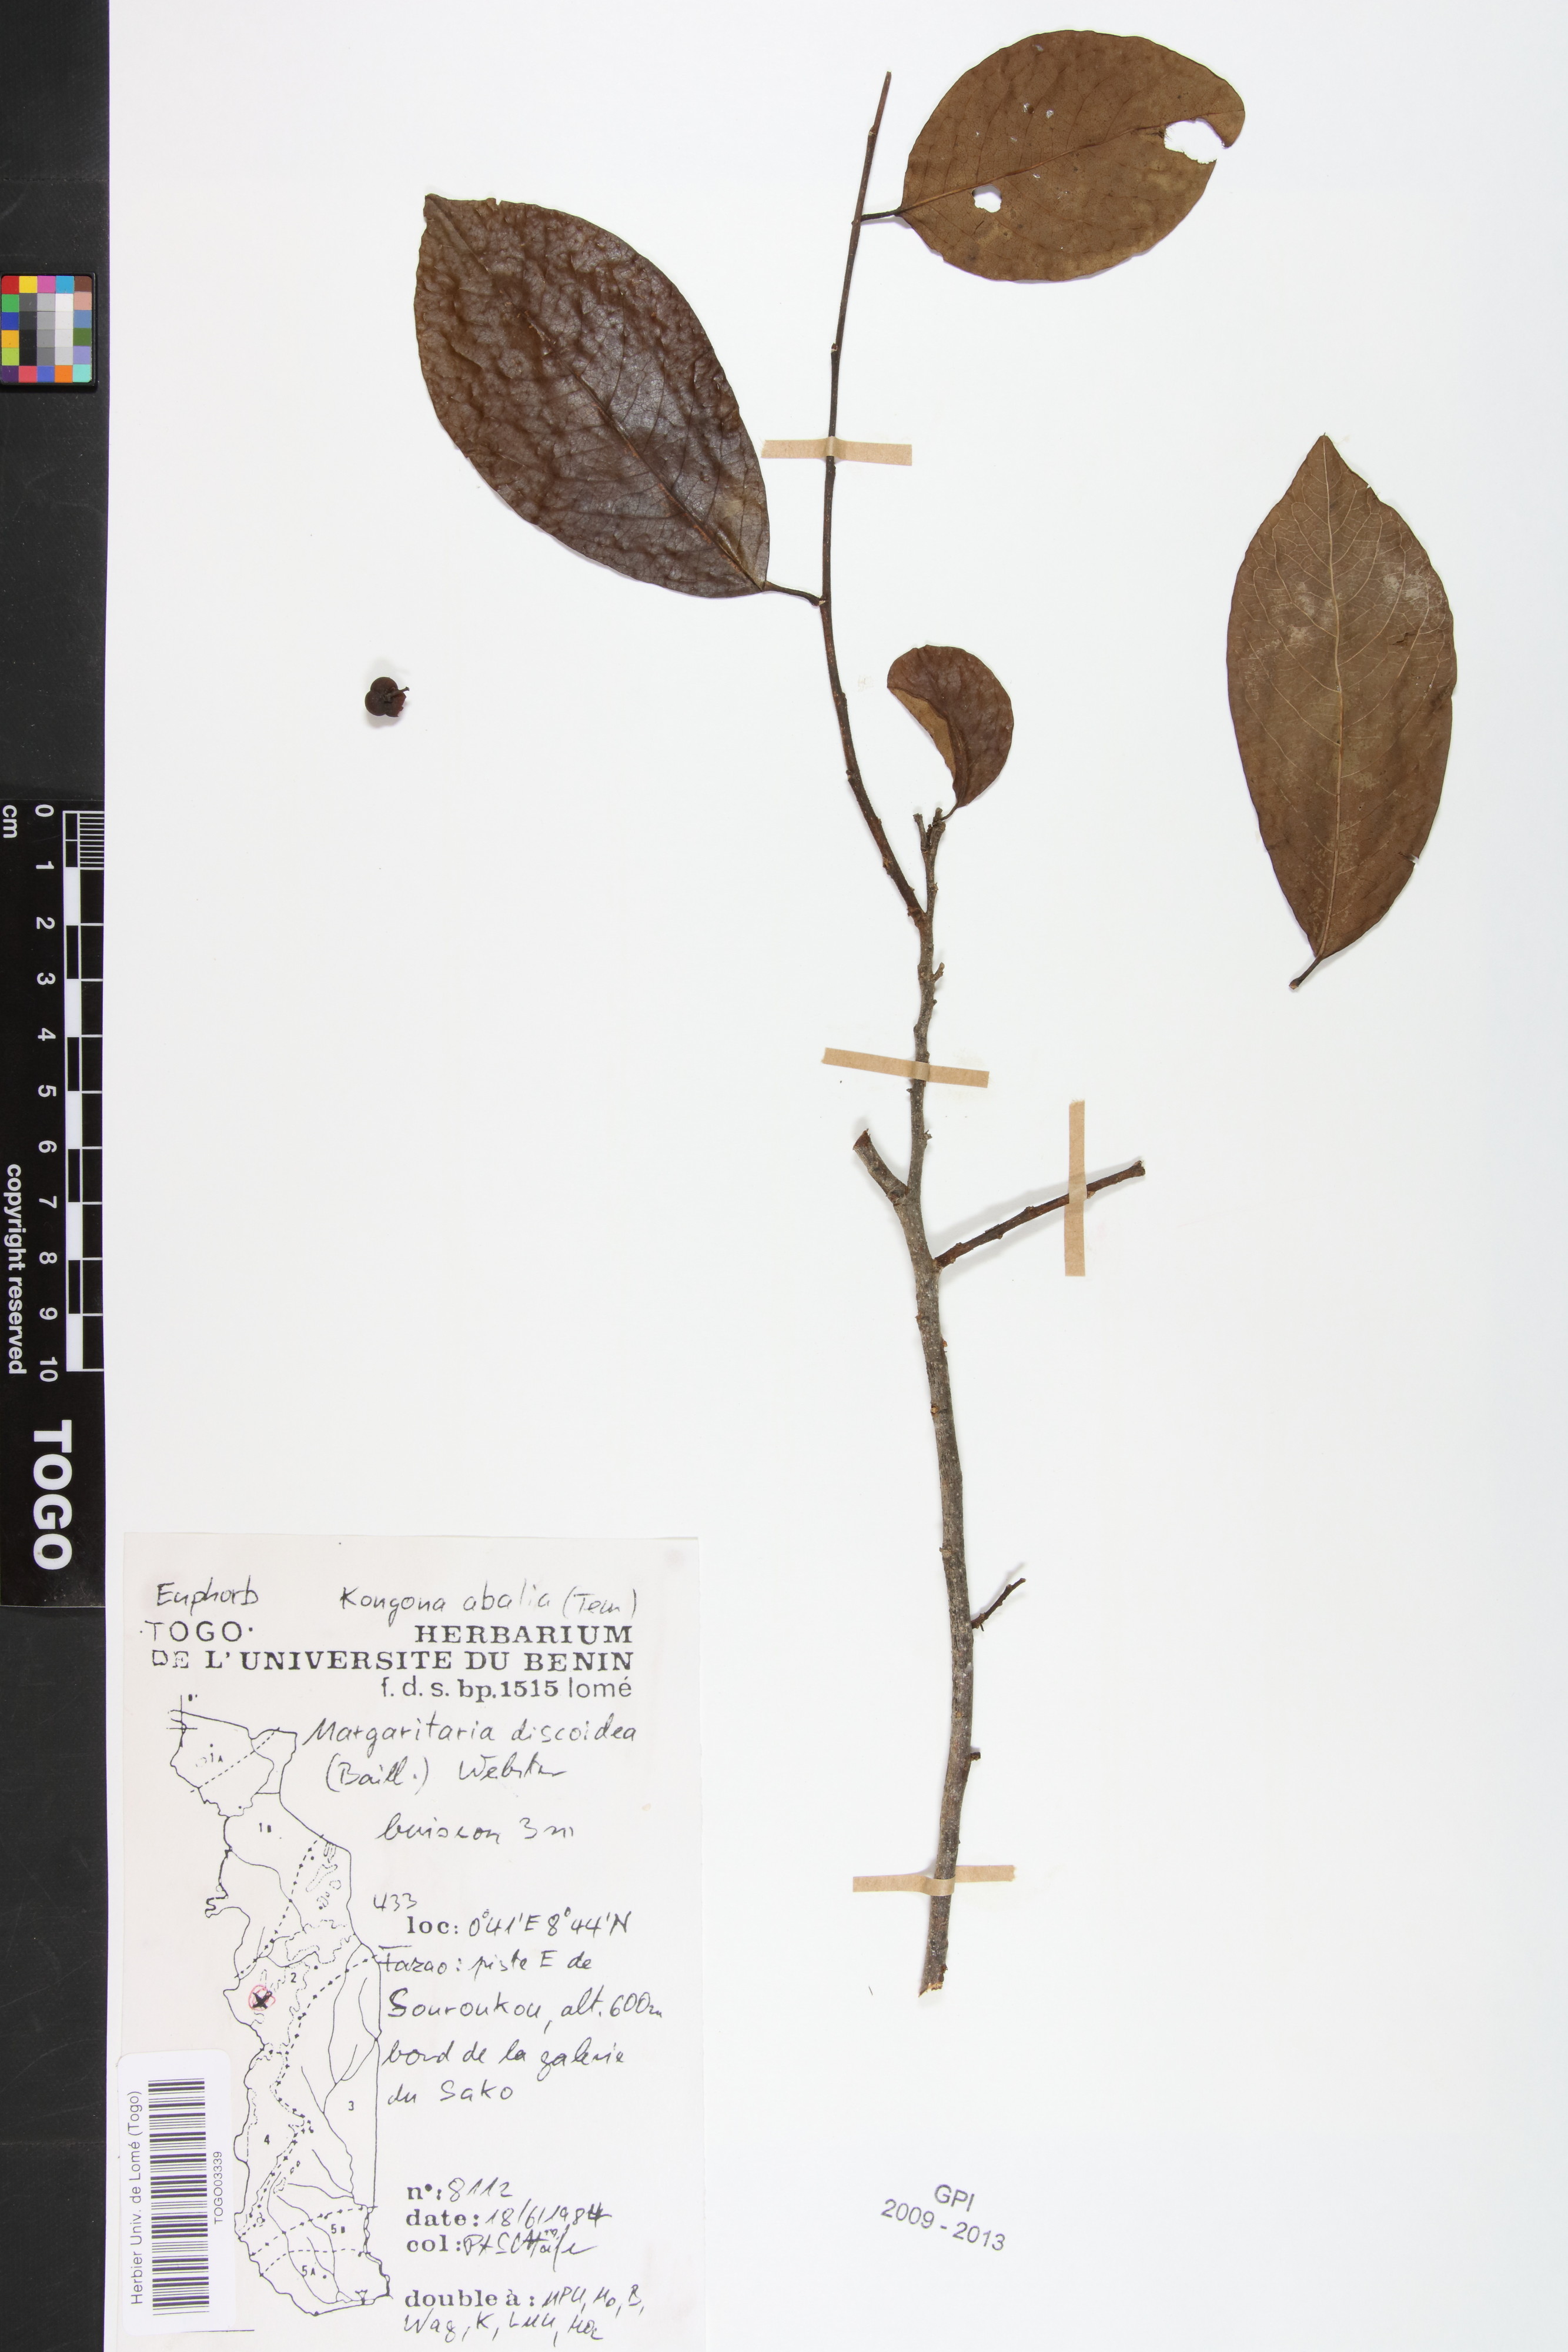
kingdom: Plantae
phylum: Tracheophyta
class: Magnoliopsida
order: Malpighiales
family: Phyllanthaceae
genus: Margaritaria
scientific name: Margaritaria discoidea
